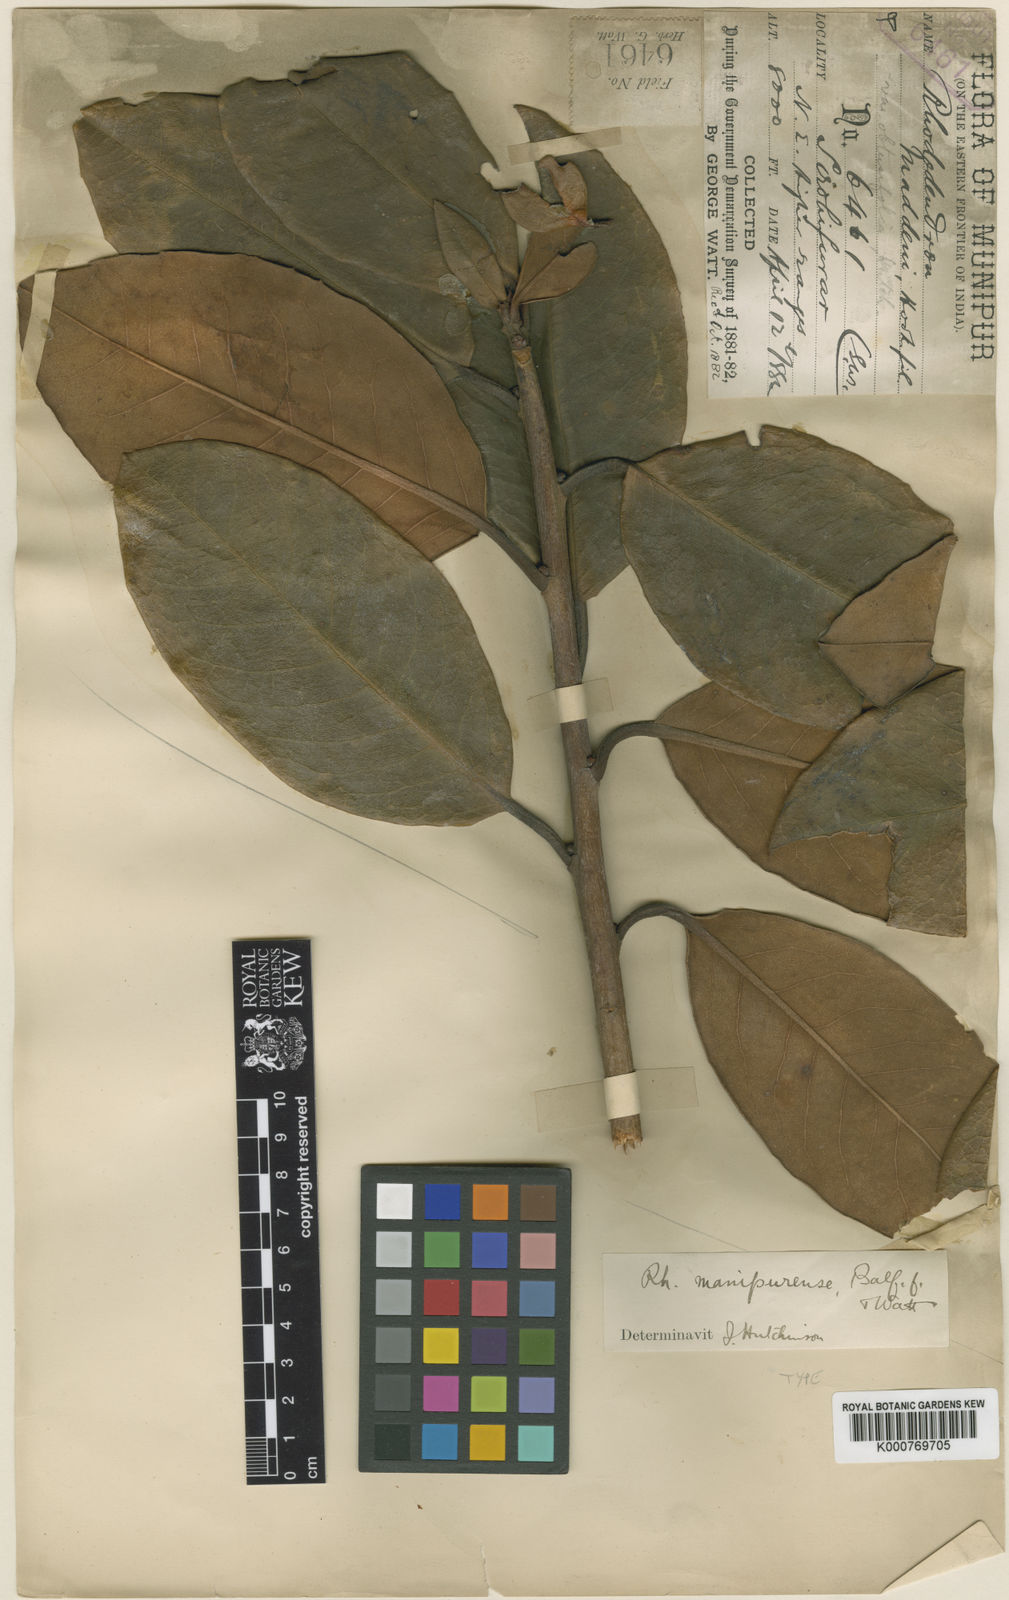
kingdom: Plantae
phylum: Tracheophyta
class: Magnoliopsida
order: Ericales
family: Ericaceae
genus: Rhododendron
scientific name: Rhododendron crassum
